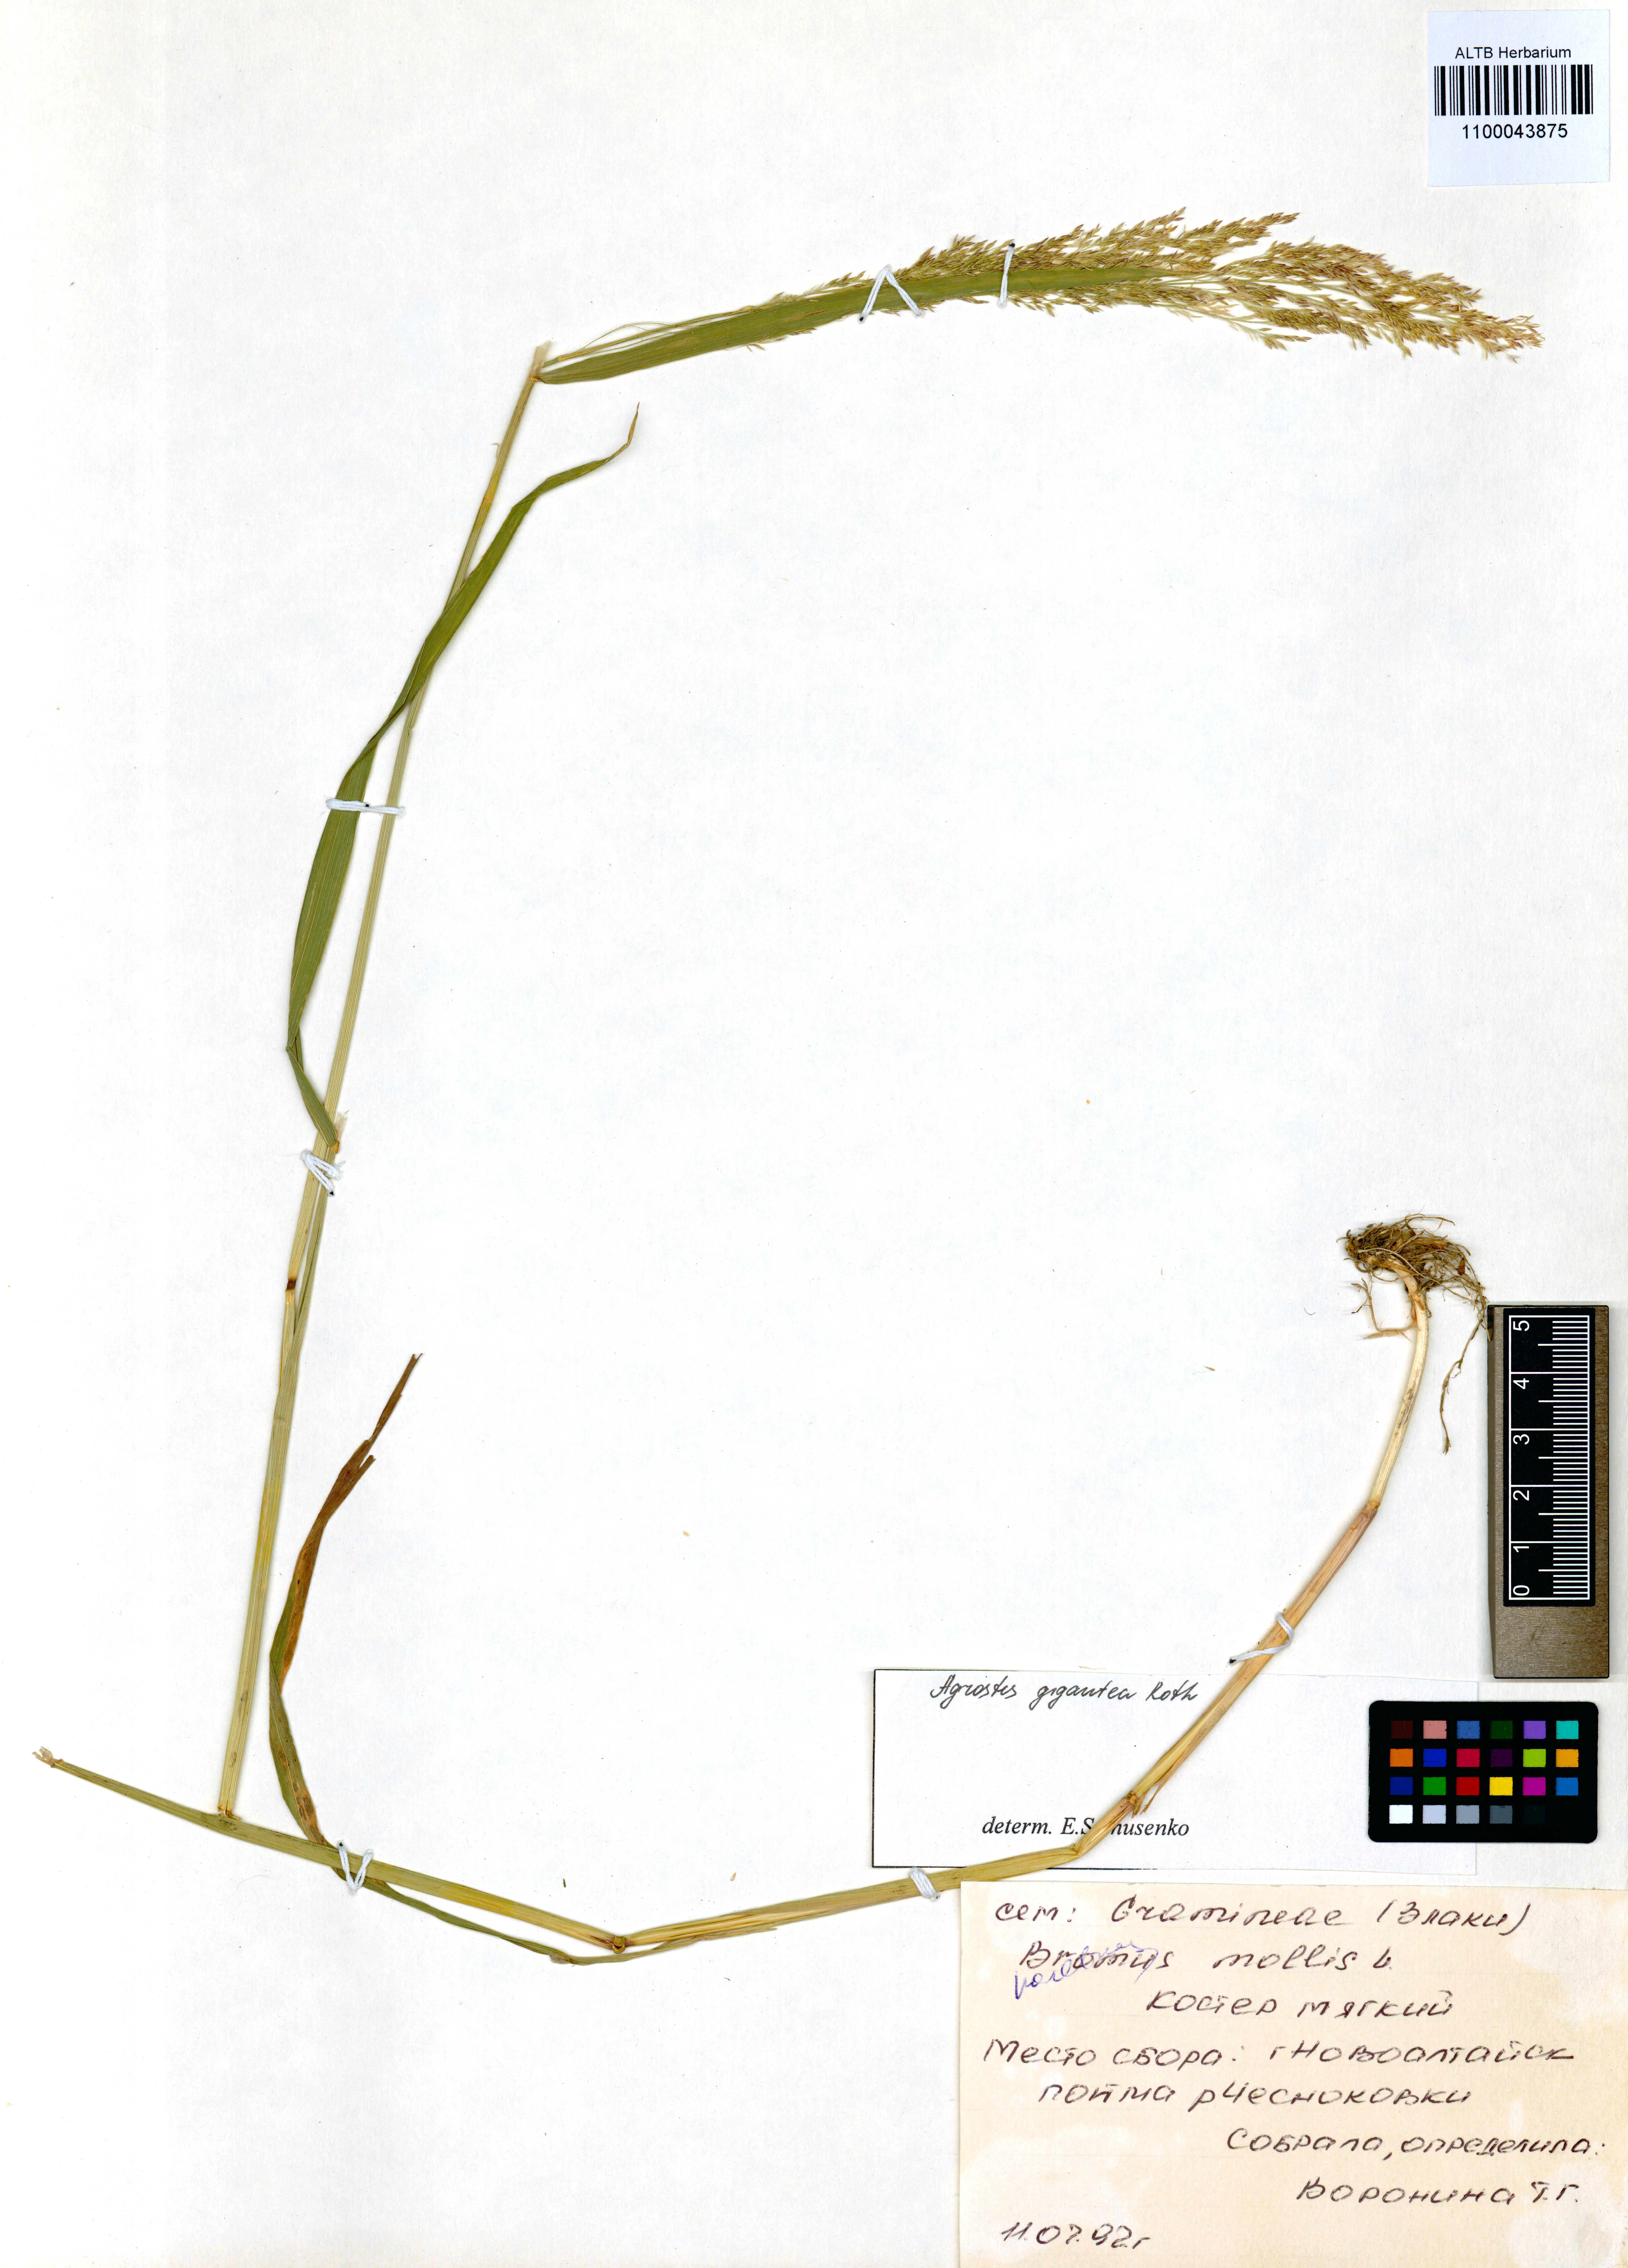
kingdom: Plantae
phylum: Tracheophyta
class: Liliopsida
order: Poales
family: Poaceae
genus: Agrostis
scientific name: Agrostis gigantea
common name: Black bent
